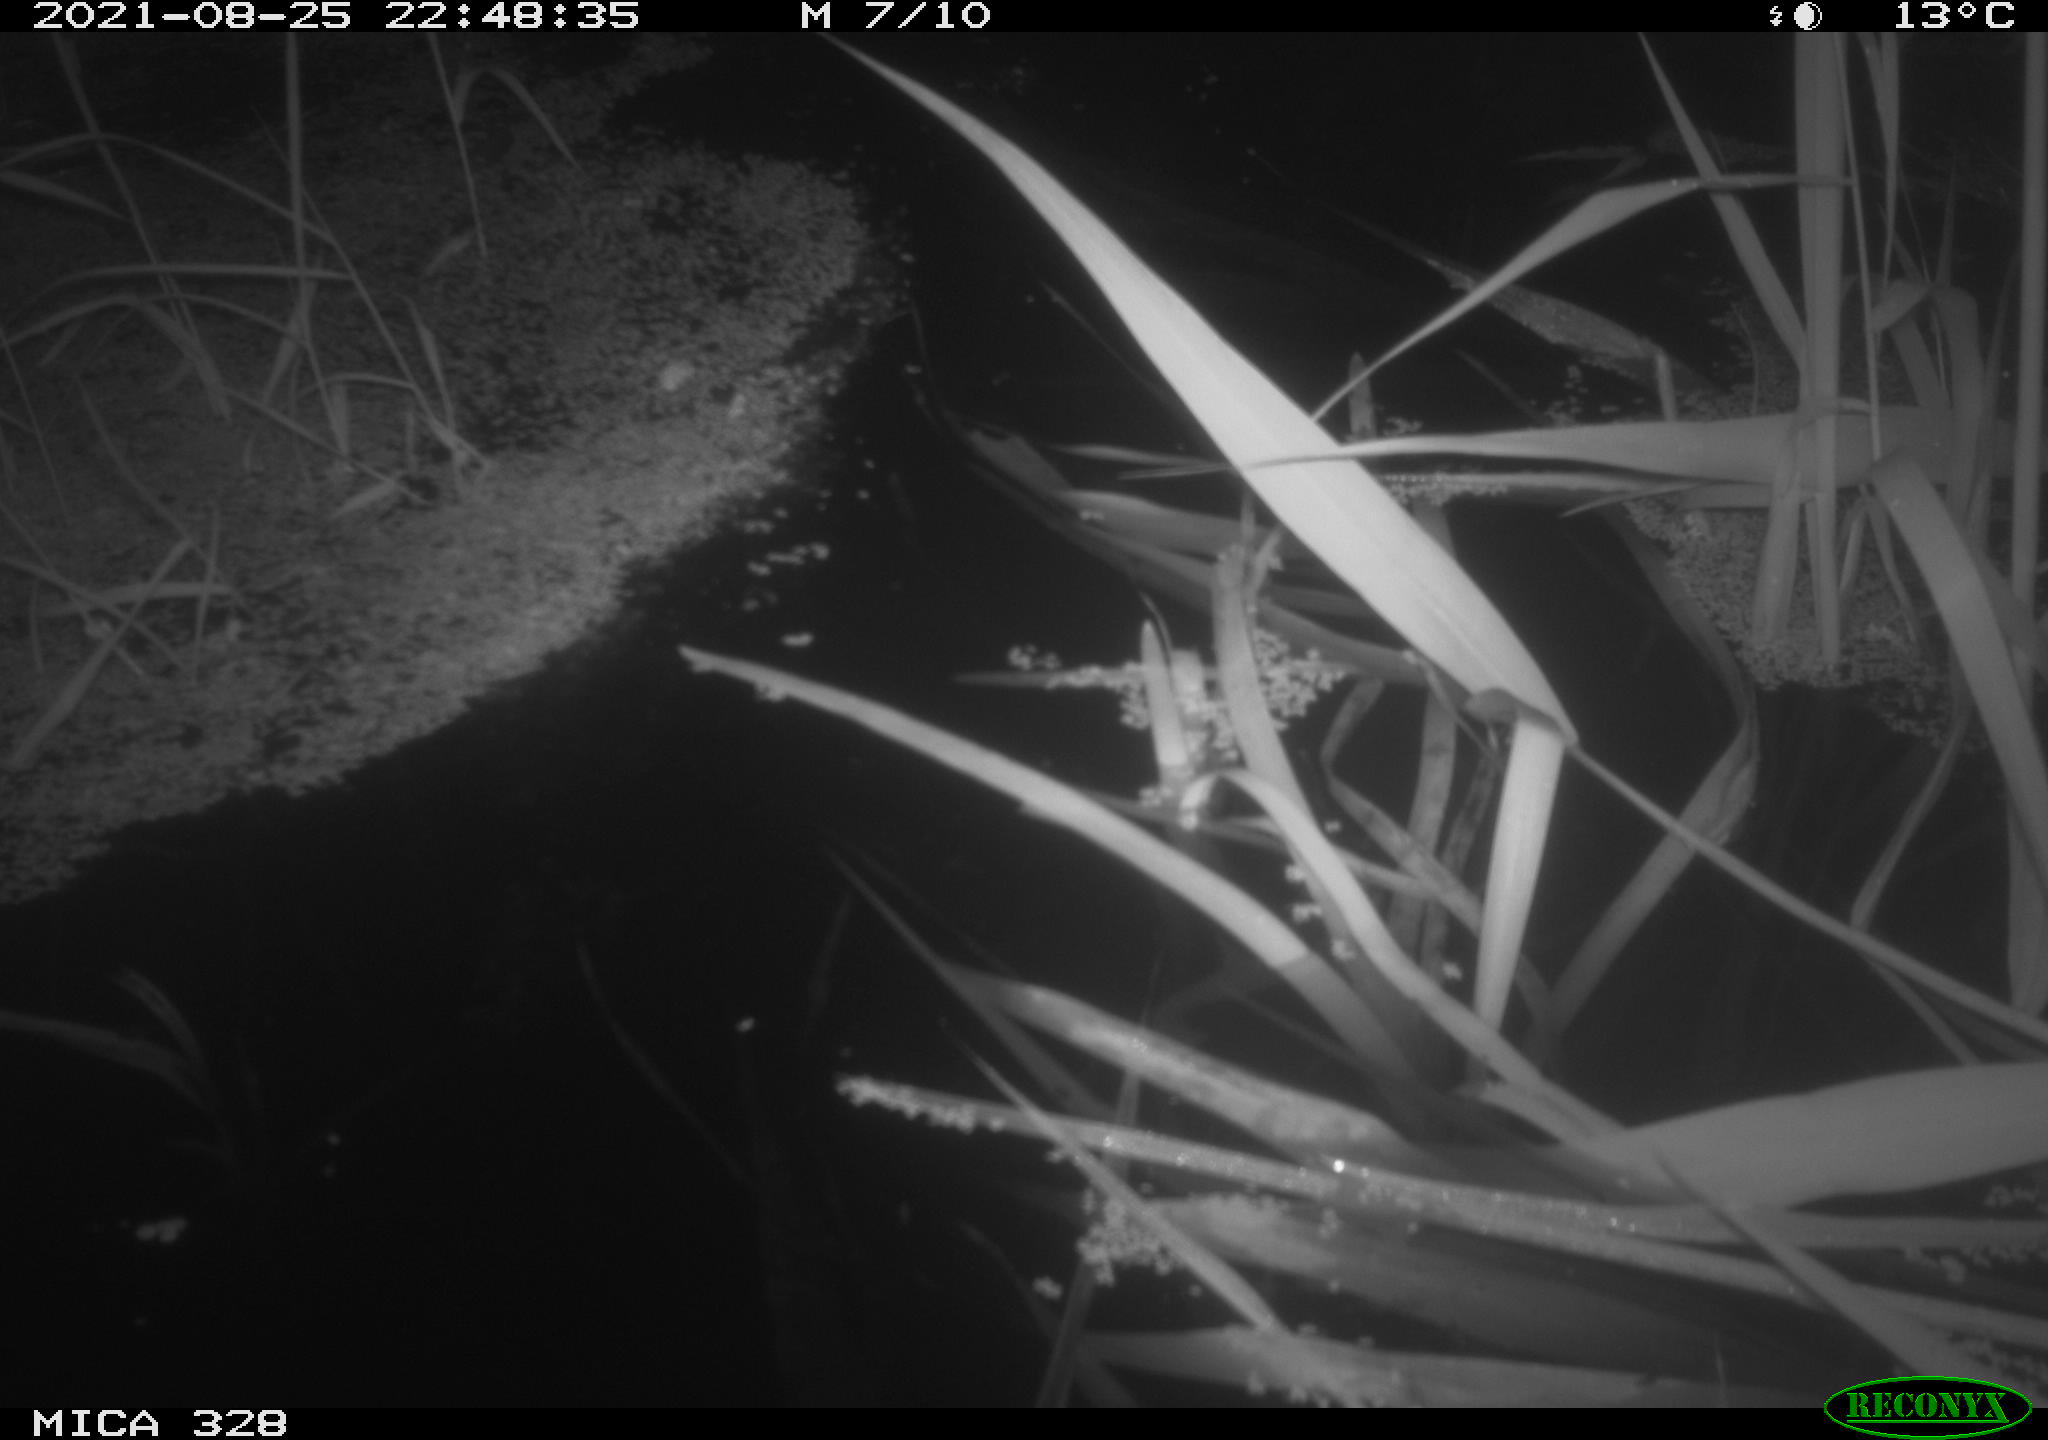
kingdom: Animalia
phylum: Chordata
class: Mammalia
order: Rodentia
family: Cricetidae
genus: Ondatra
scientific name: Ondatra zibethicus
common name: Muskrat
